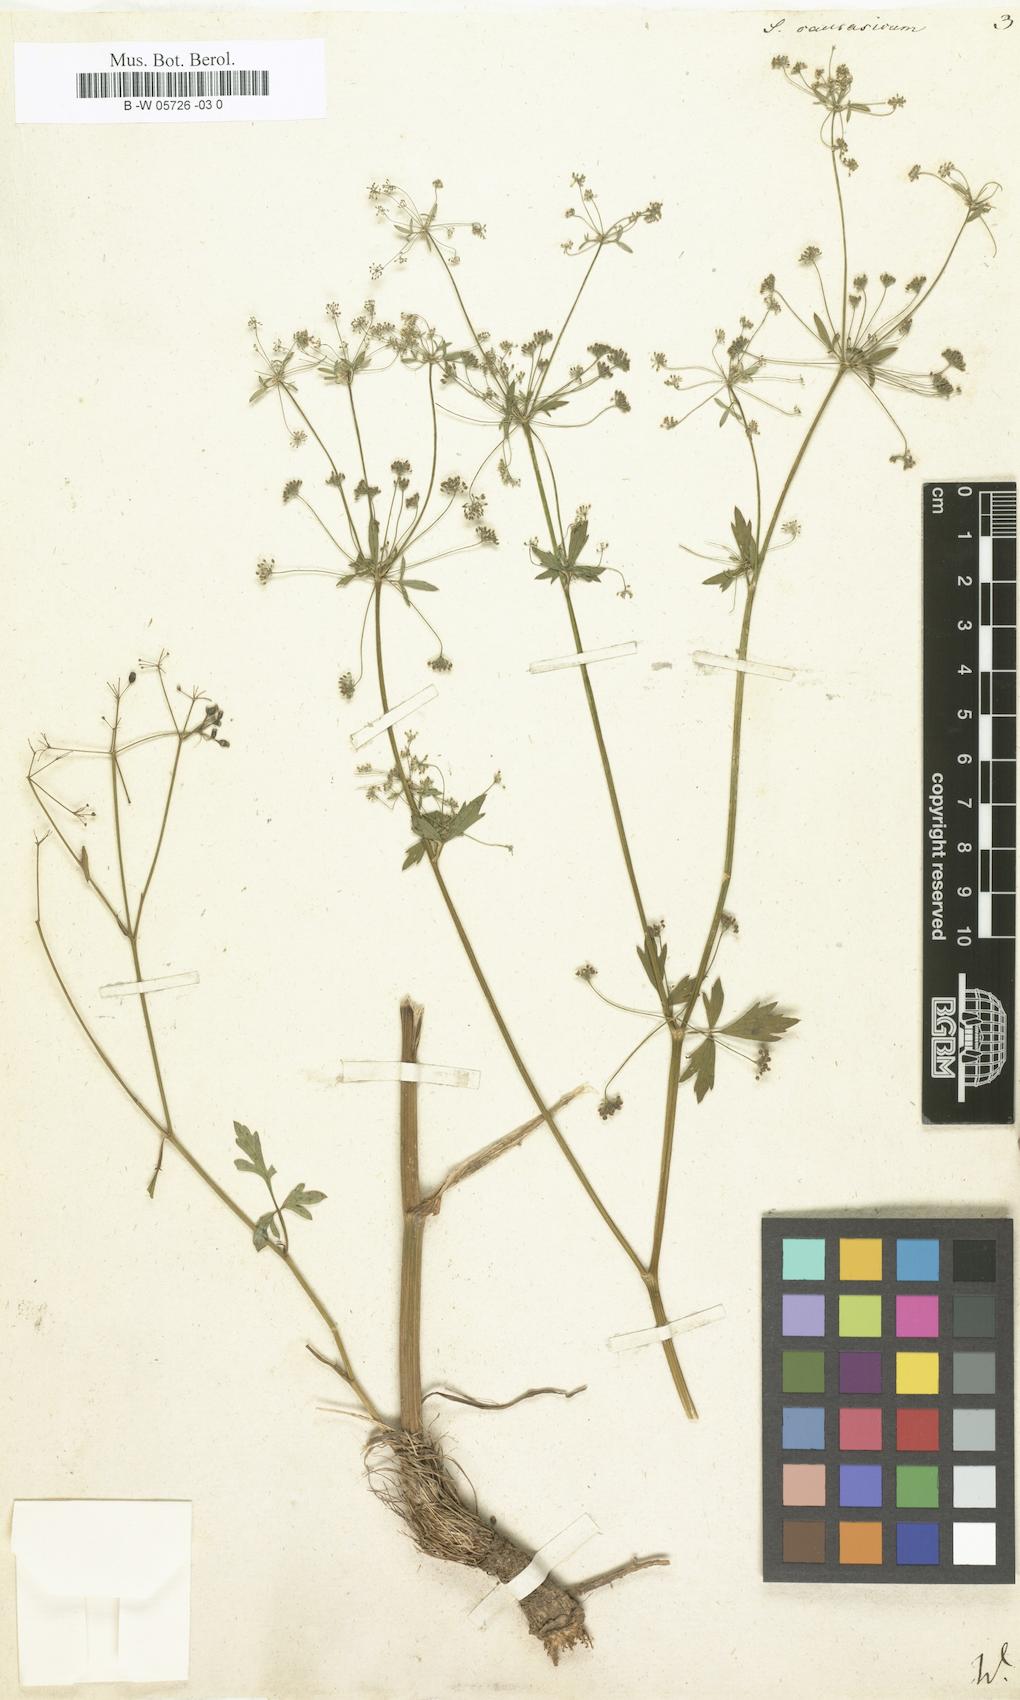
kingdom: Plantae
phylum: Tracheophyta
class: Magnoliopsida
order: Apiales
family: Apiaceae
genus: Dichoropetalum
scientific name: Dichoropetalum caucasicum
